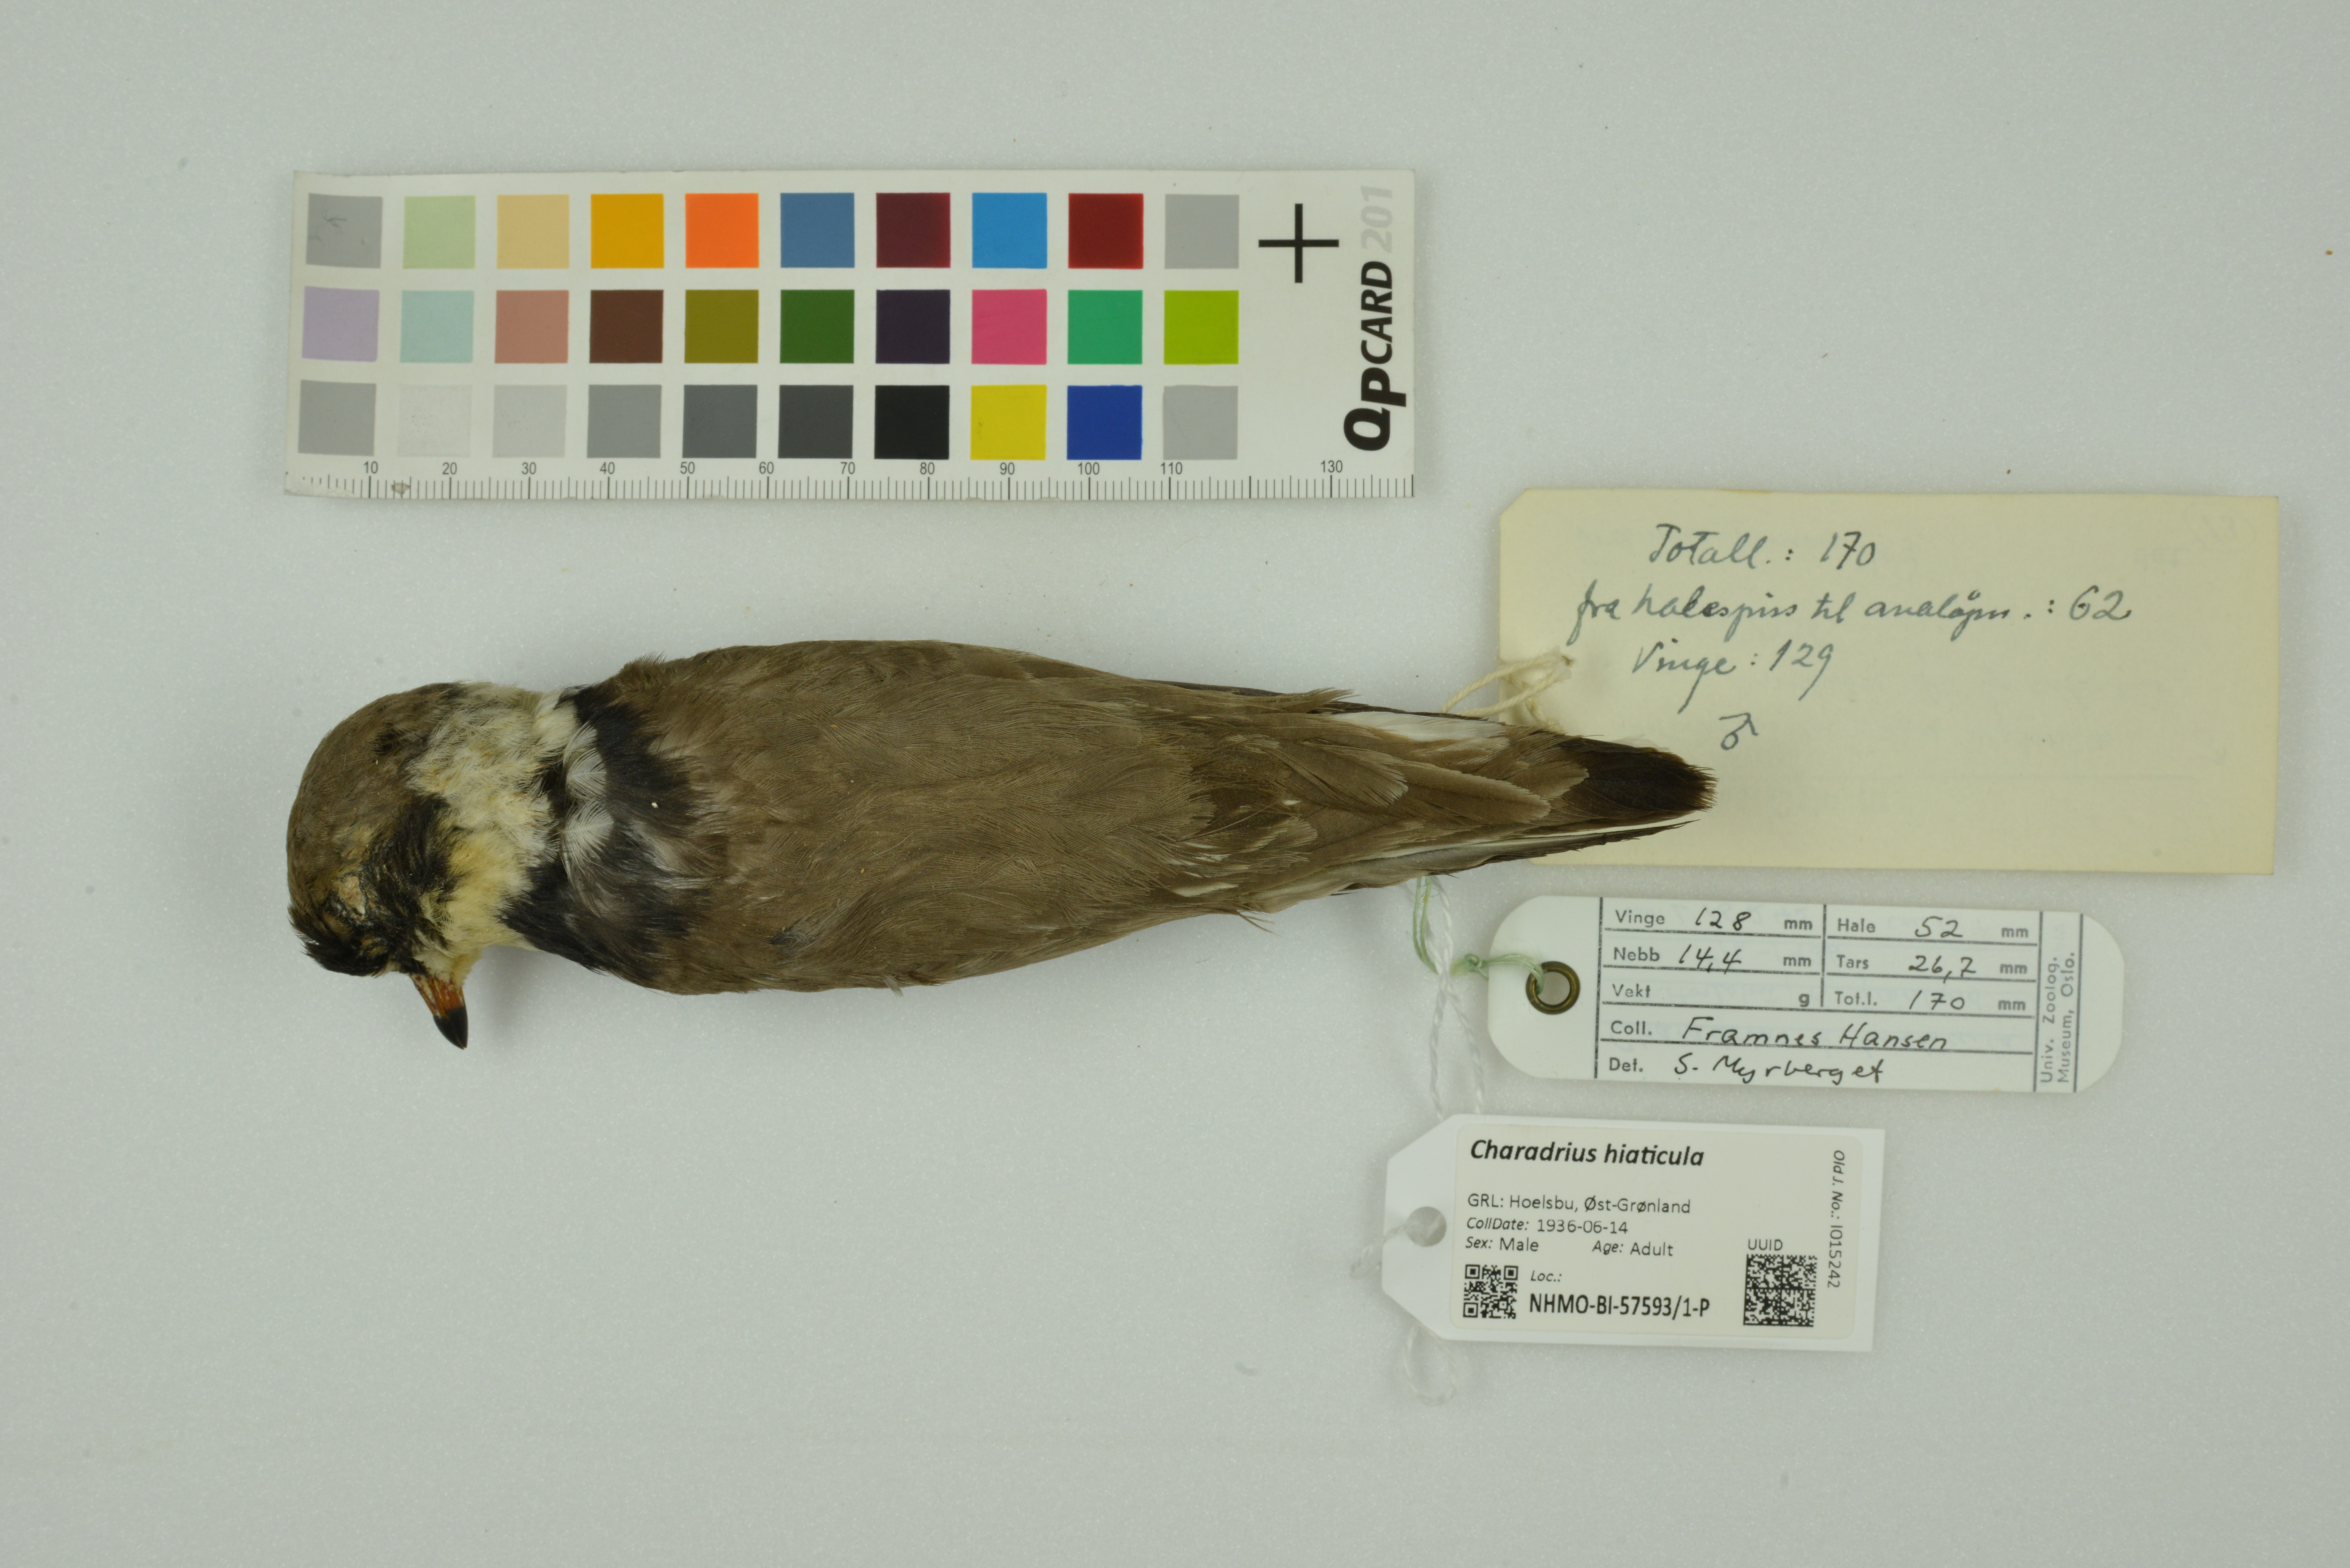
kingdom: Animalia
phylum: Chordata
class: Aves
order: Charadriiformes
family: Charadriidae
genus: Charadrius
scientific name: Charadrius hiaticula
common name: Common ringed plover
